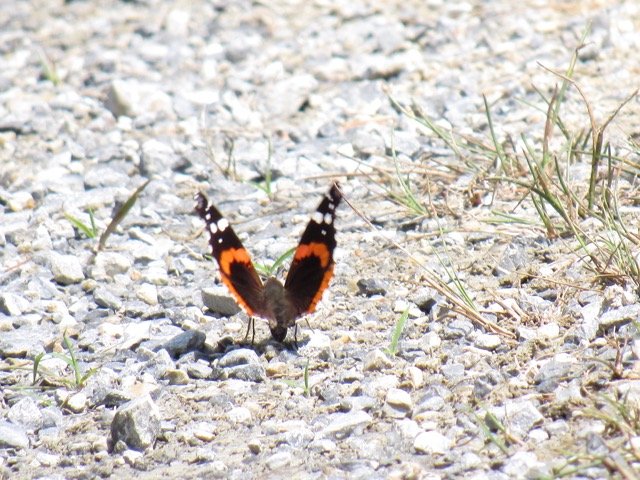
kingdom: Animalia
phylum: Arthropoda
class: Insecta
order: Lepidoptera
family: Nymphalidae
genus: Vanessa
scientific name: Vanessa atalanta
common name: Red Admiral
